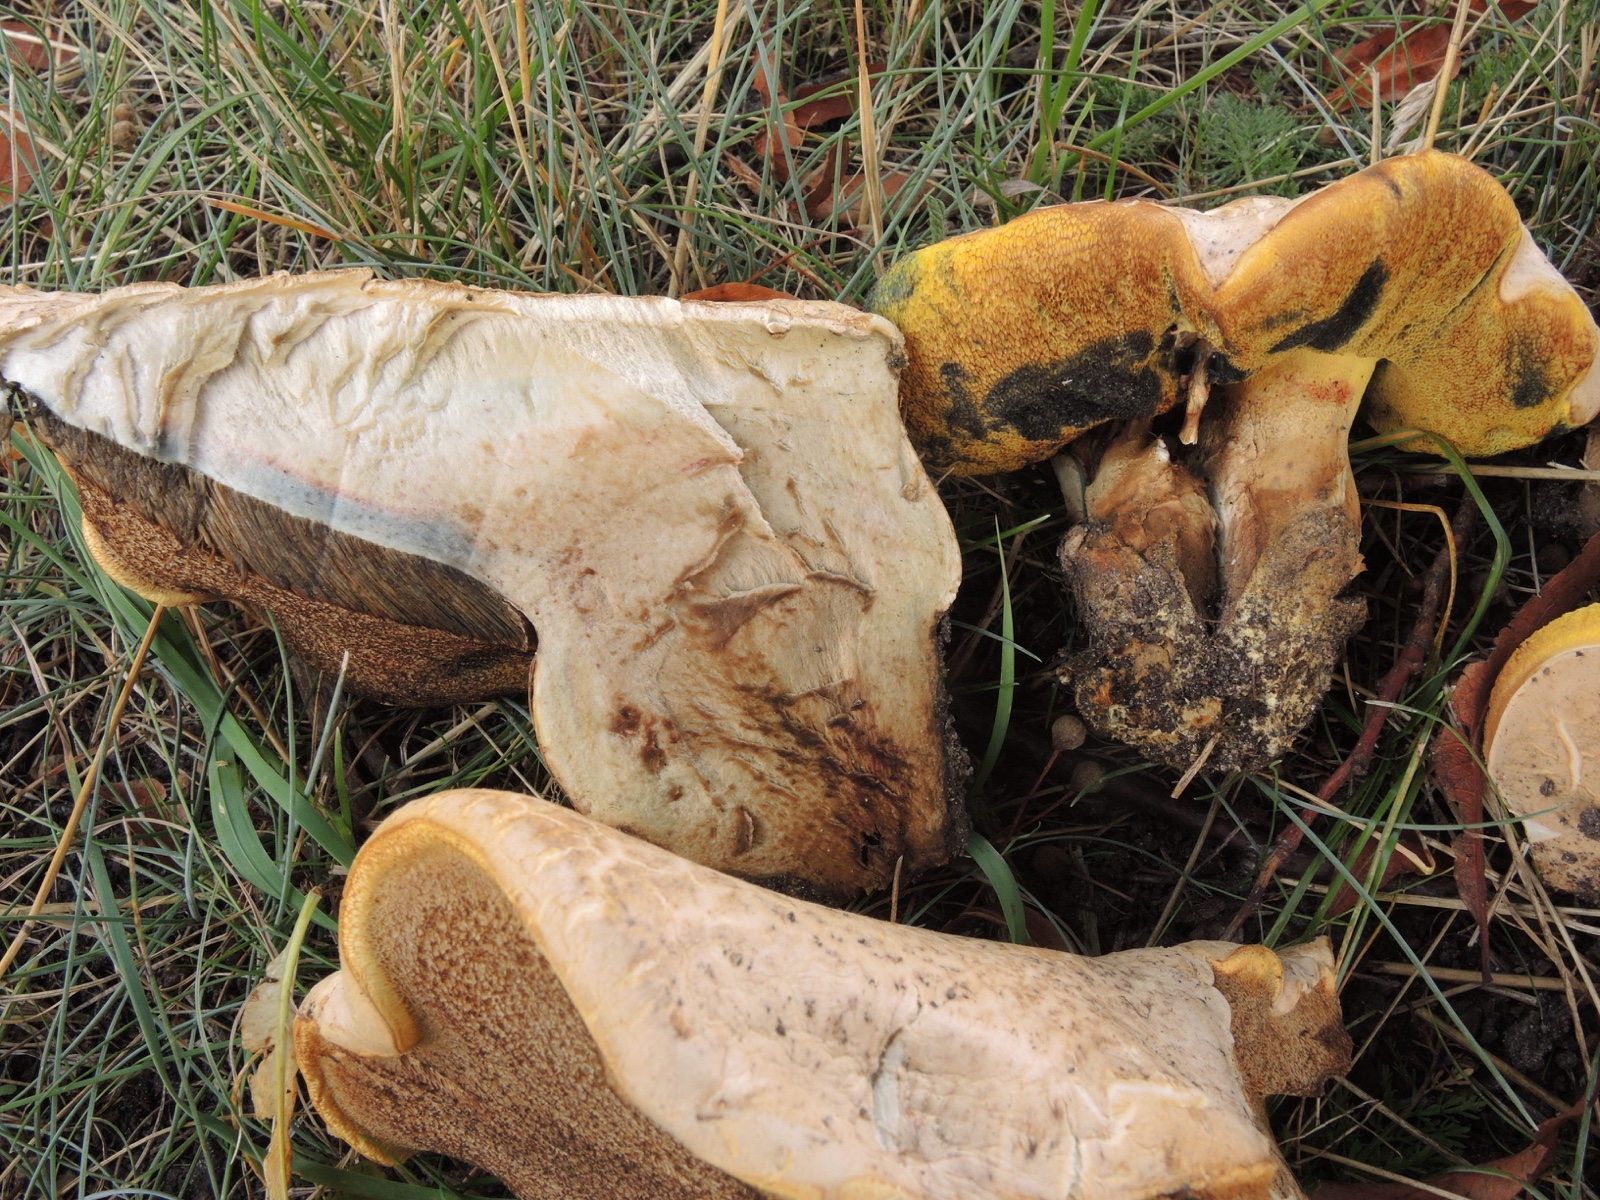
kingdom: Fungi
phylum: Basidiomycota
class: Agaricomycetes
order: Boletales
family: Boletaceae
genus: Caloboletus
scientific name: Caloboletus radicans
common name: rod-rørhat
